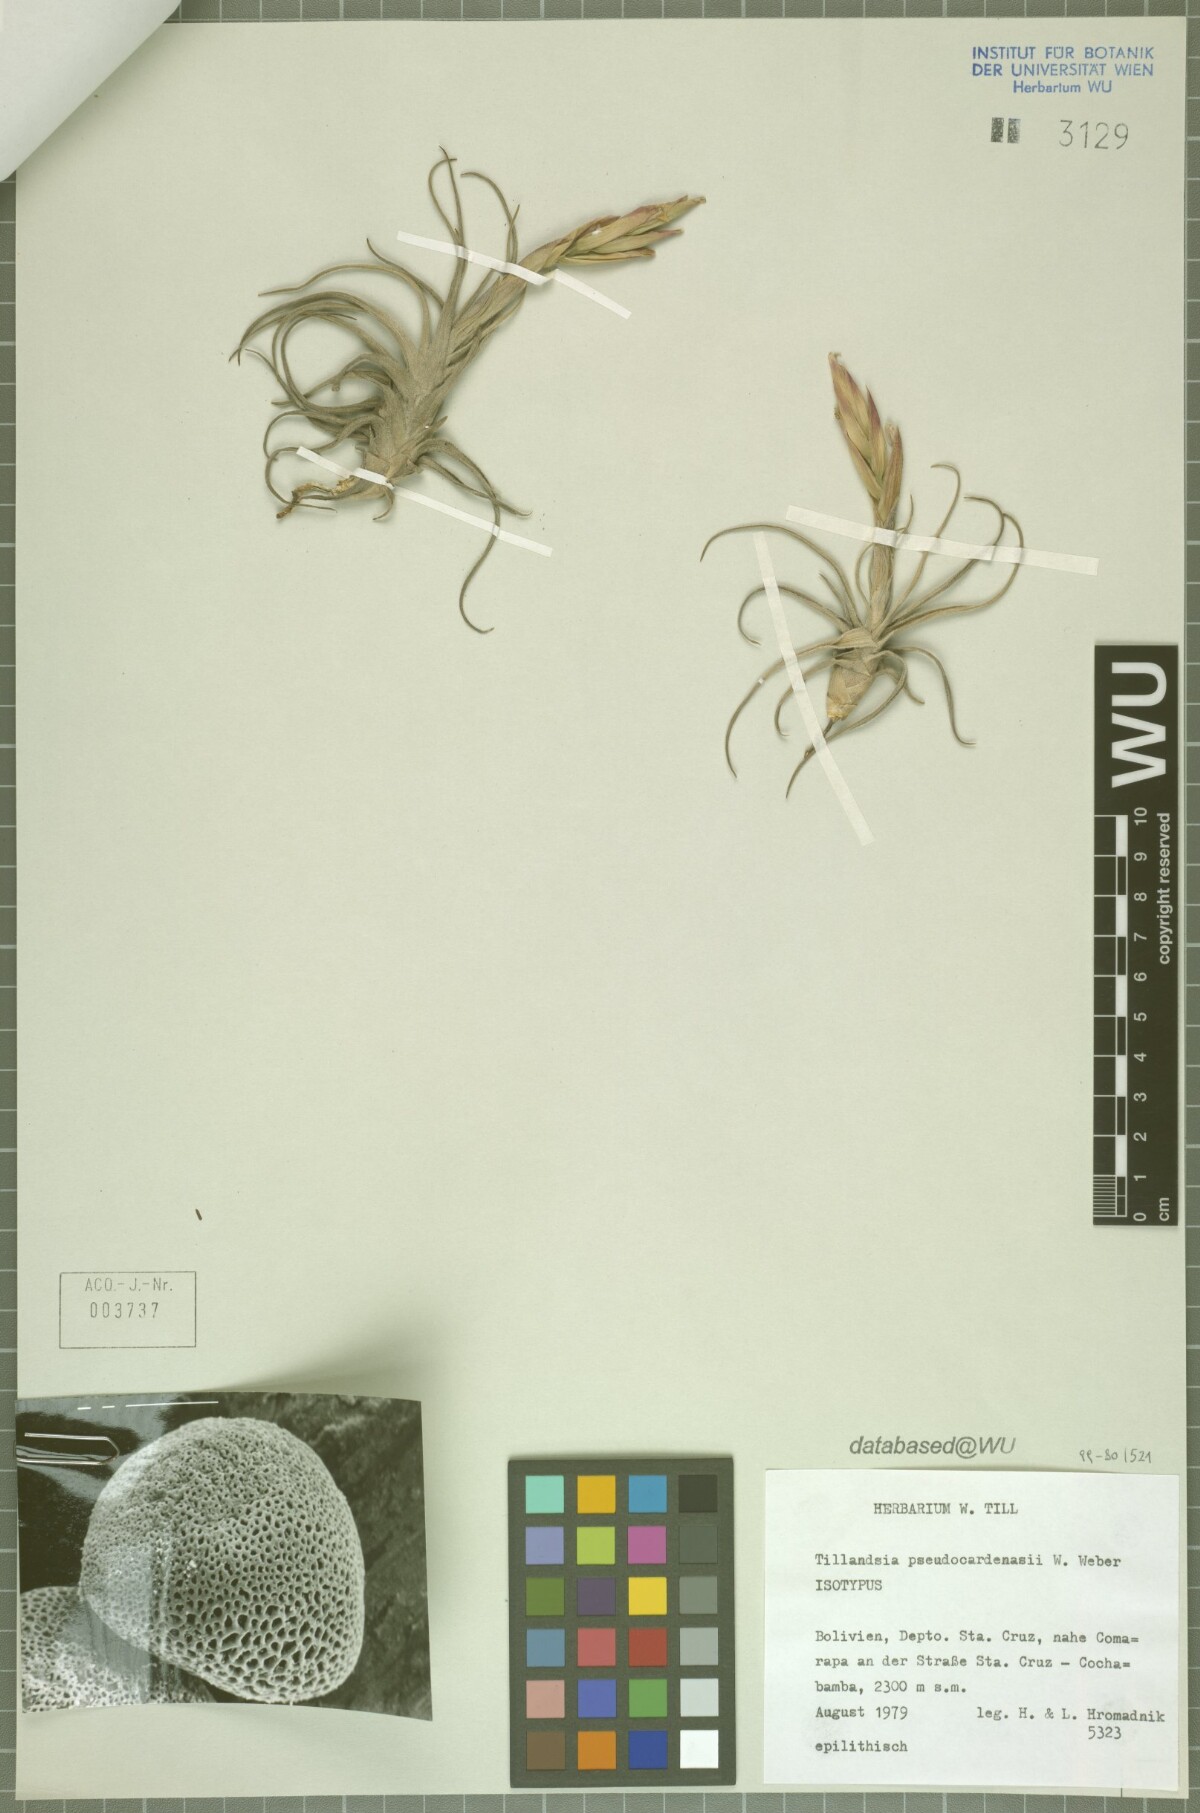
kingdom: Plantae
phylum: Tracheophyta
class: Liliopsida
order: Poales
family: Bromeliaceae
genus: Tillandsia
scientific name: Tillandsia pseudocardenasii
